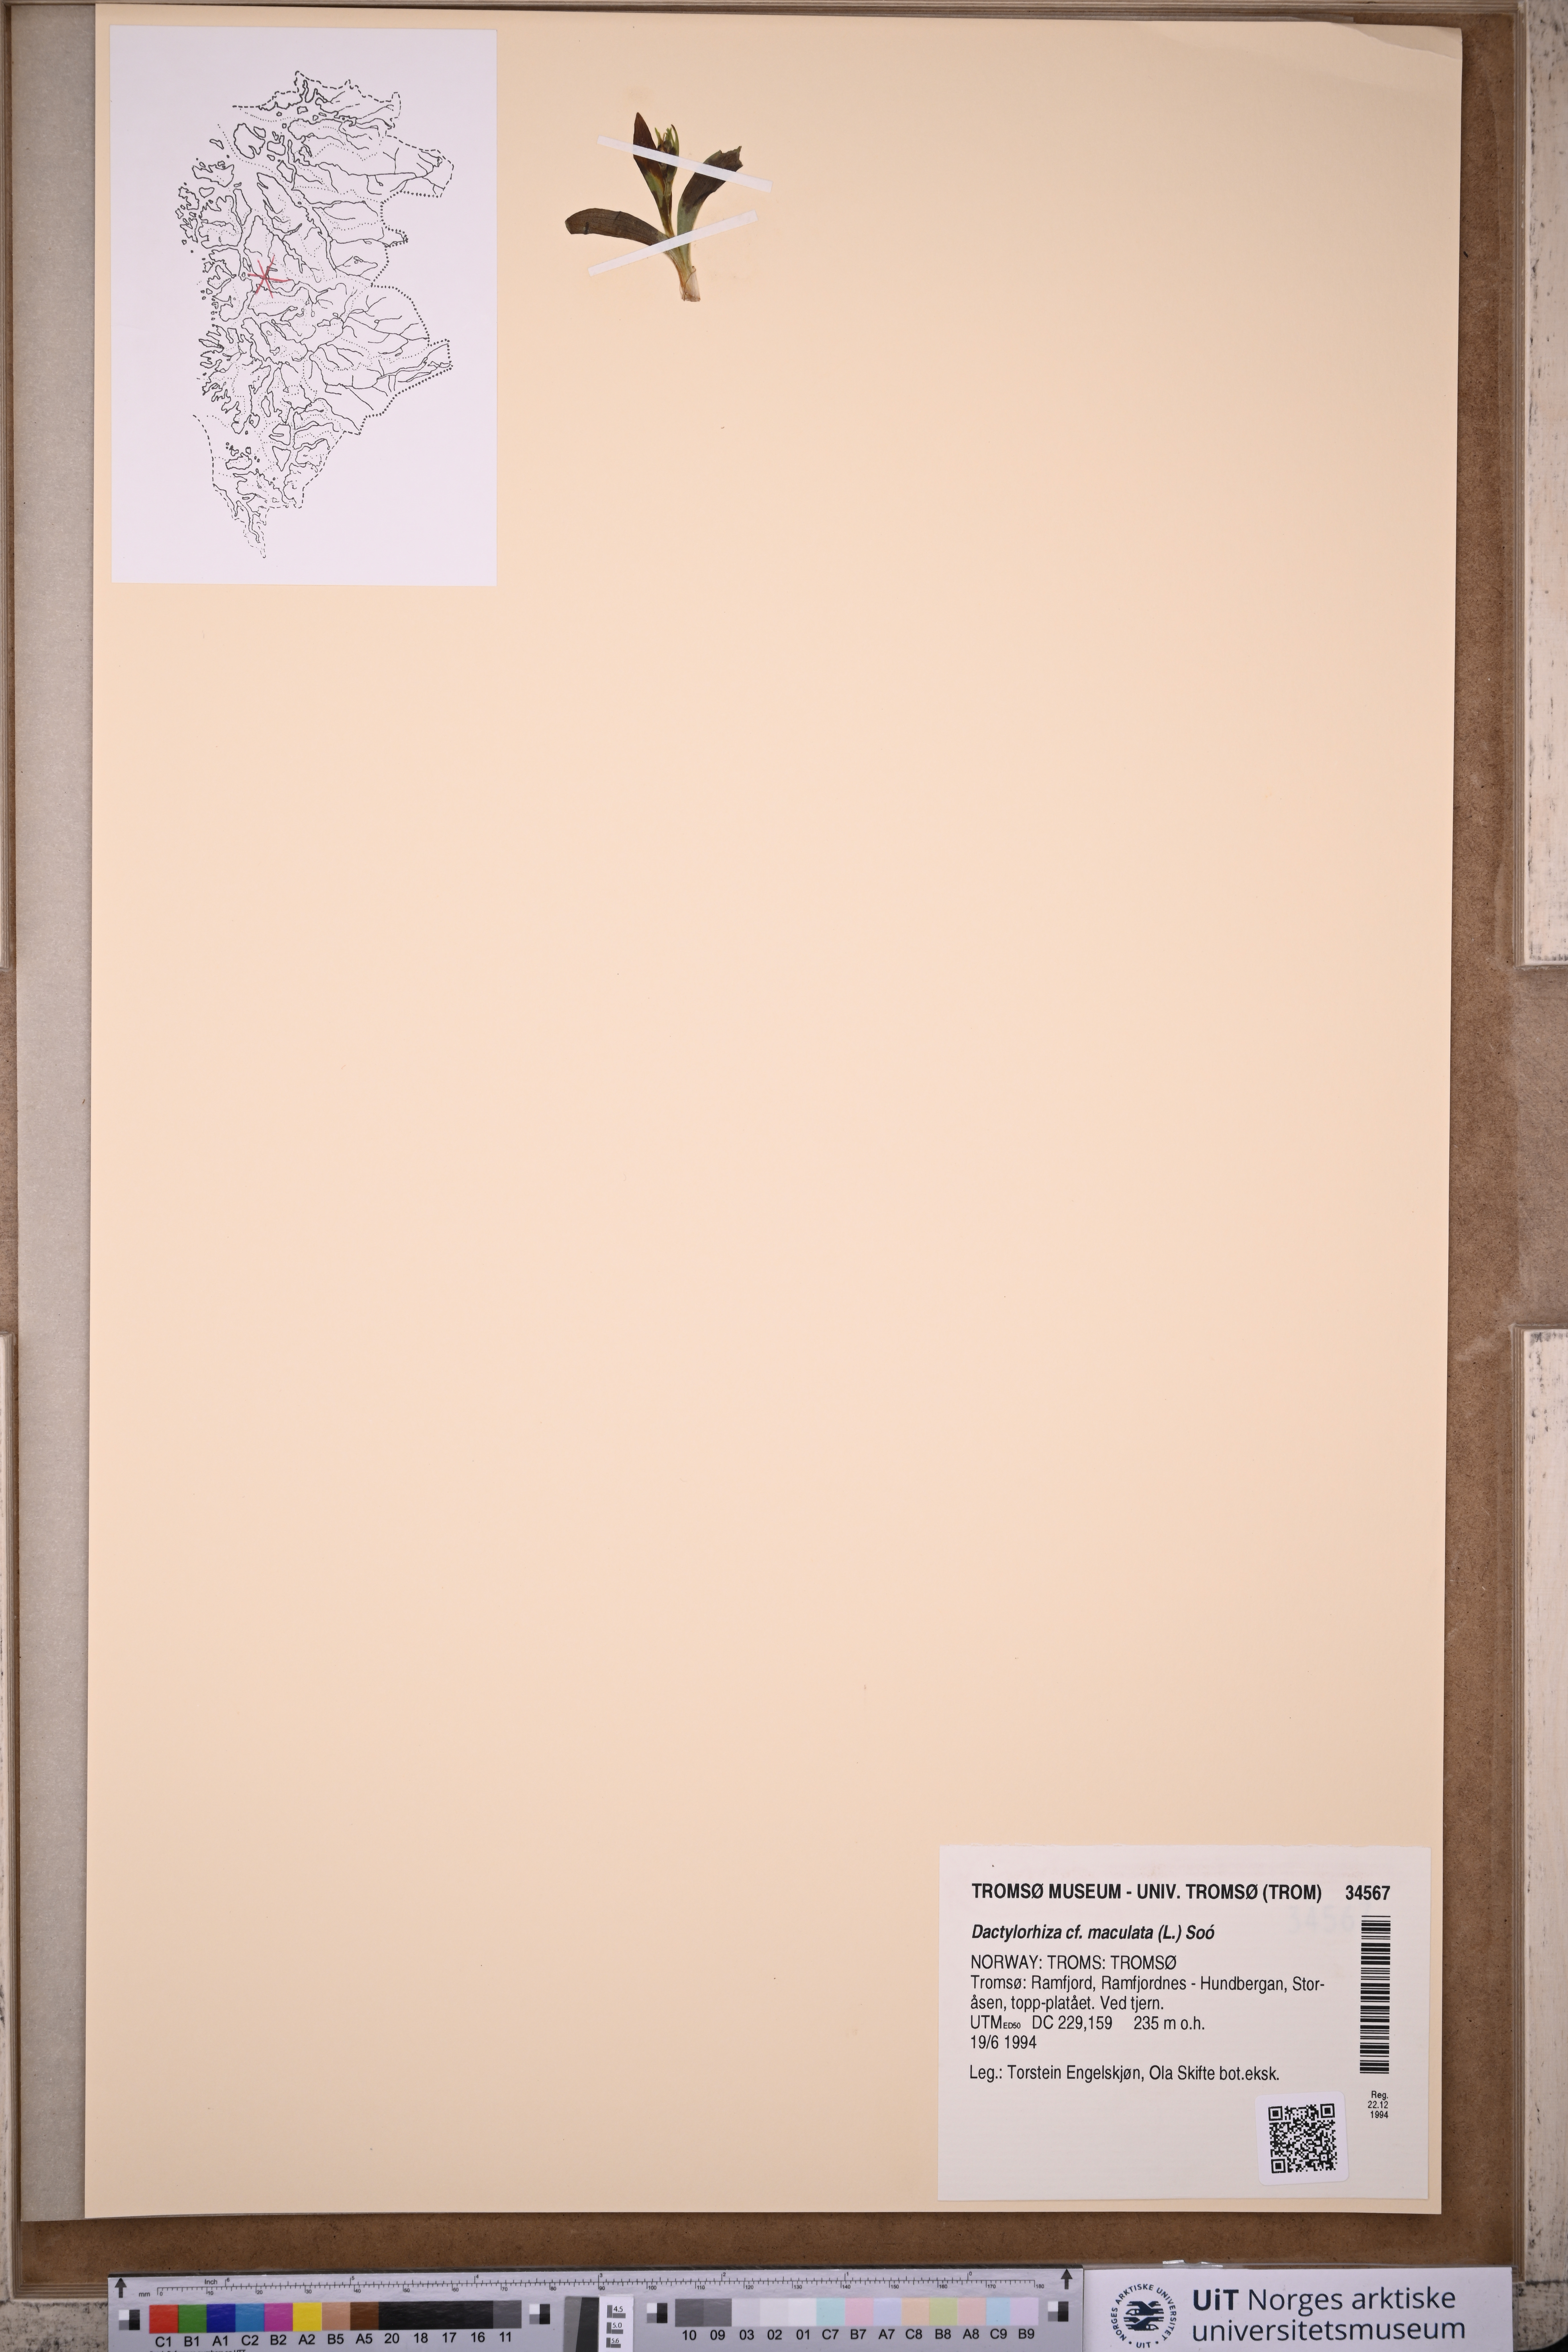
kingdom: Plantae
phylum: Tracheophyta
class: Liliopsida
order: Asparagales
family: Orchidaceae
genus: Dactylorhiza
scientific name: Dactylorhiza maculata
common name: Heath spotted-orchid
